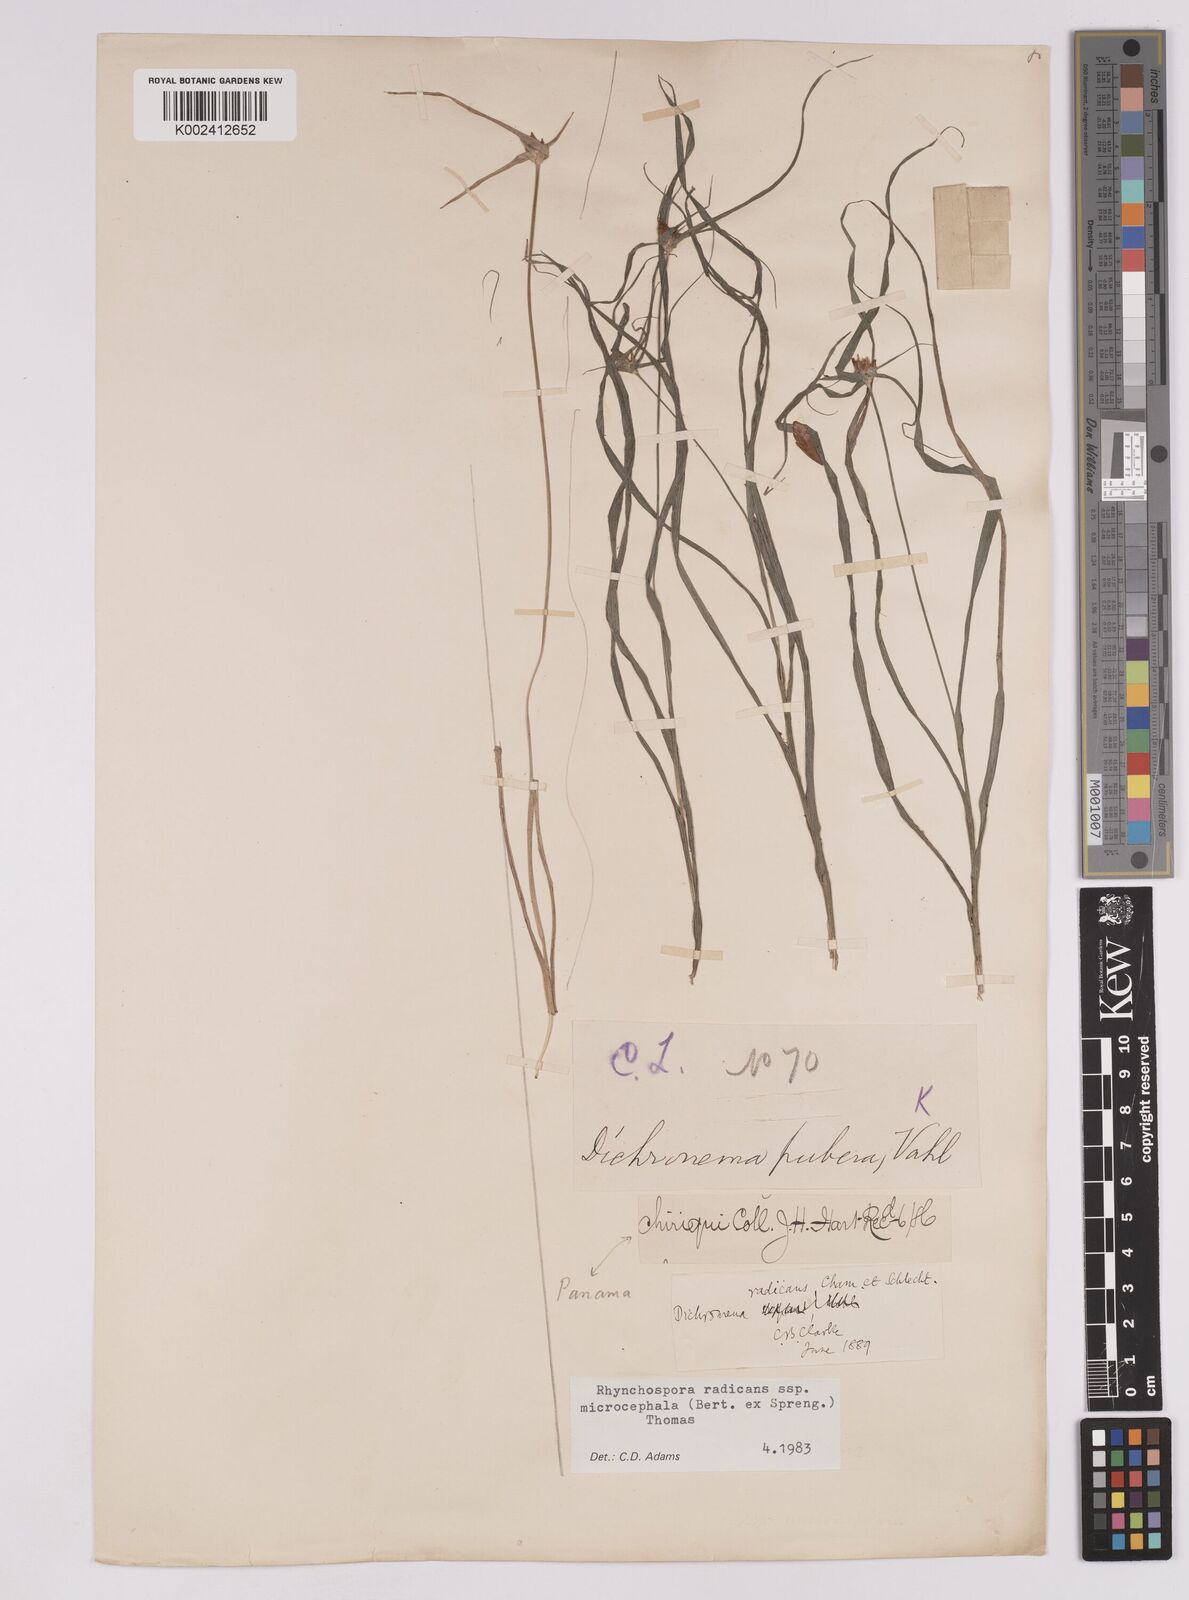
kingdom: Plantae
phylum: Tracheophyta
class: Liliopsida
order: Poales
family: Cyperaceae
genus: Rhynchospora
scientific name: Rhynchospora radicans
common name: Tropical whitetop
